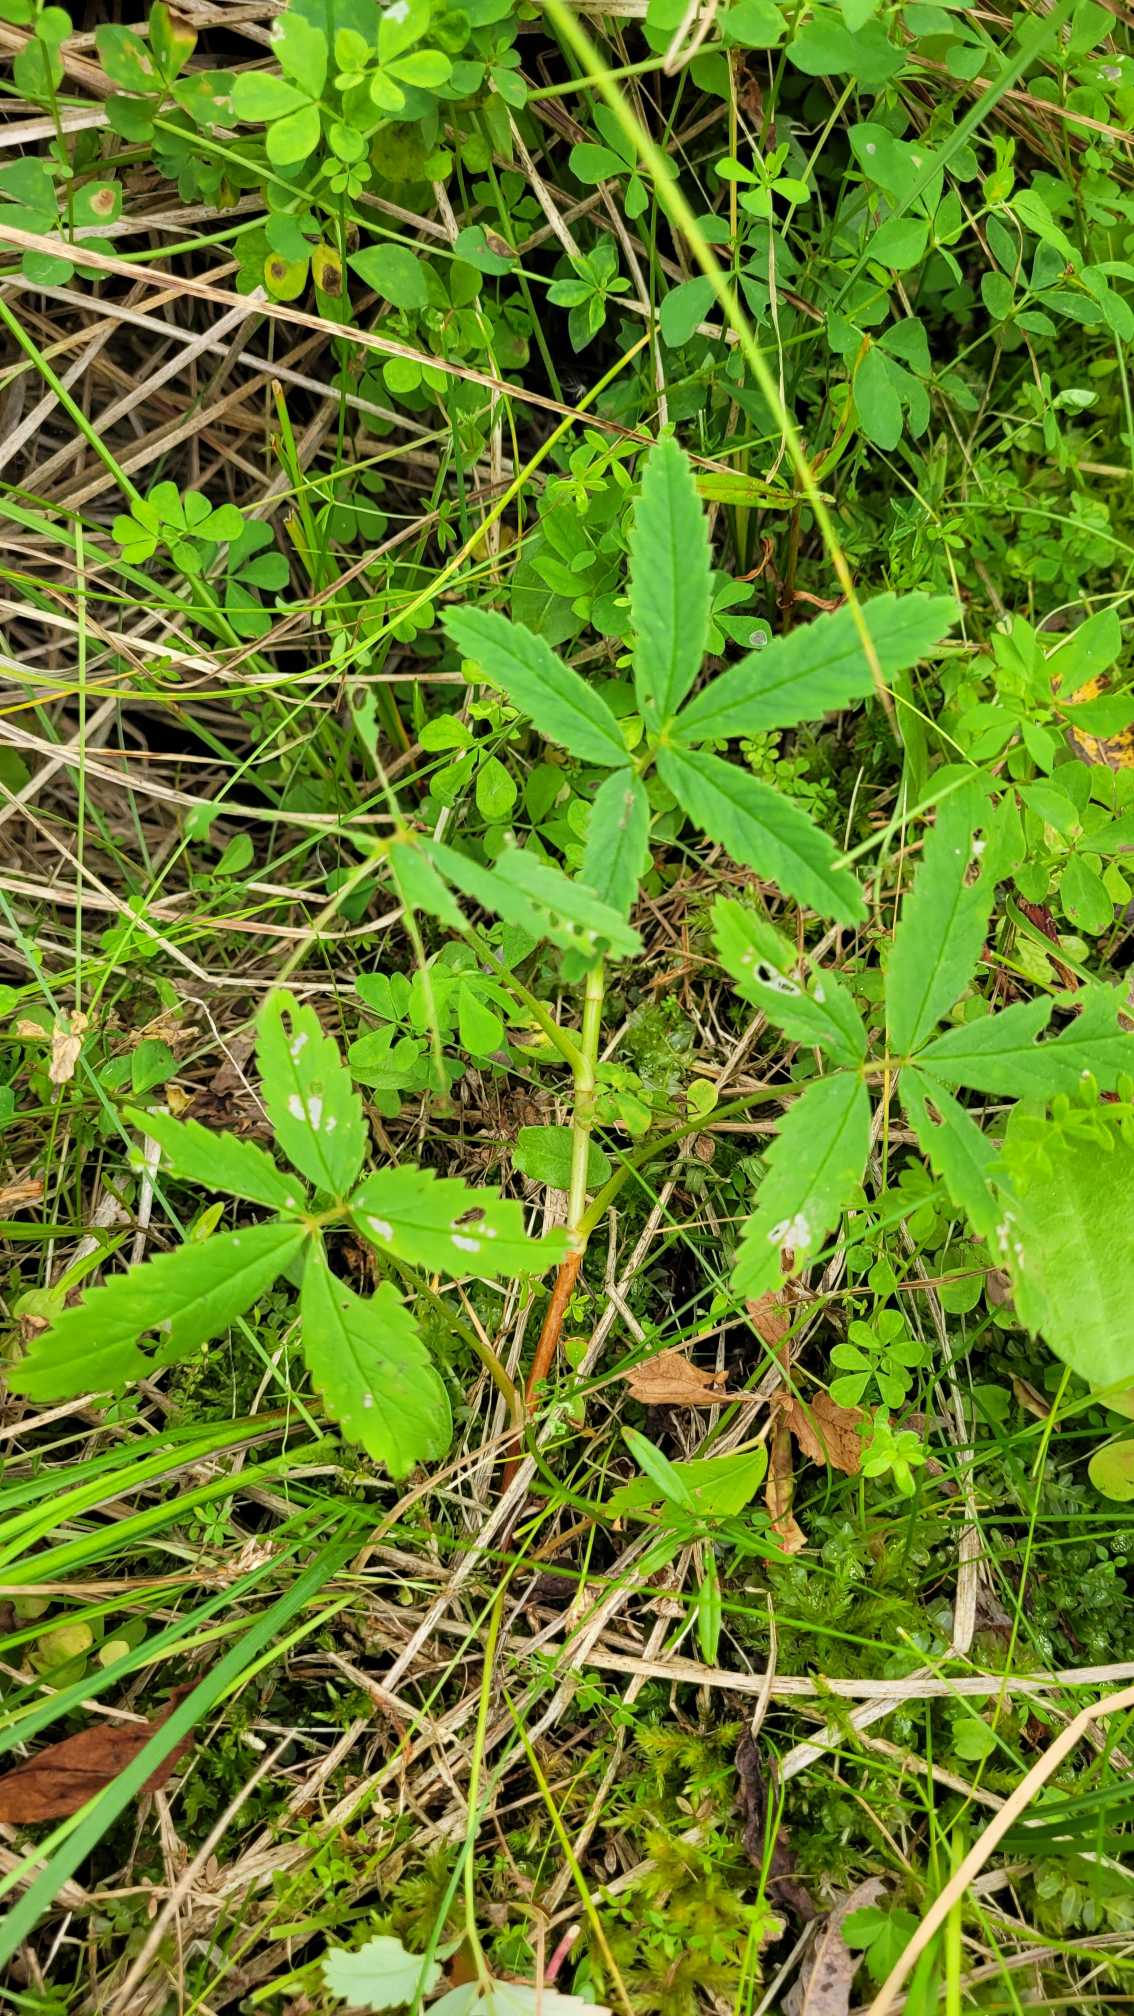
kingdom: Plantae
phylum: Tracheophyta
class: Magnoliopsida
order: Rosales
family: Rosaceae
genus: Comarum
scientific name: Comarum palustre
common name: Kragefod
